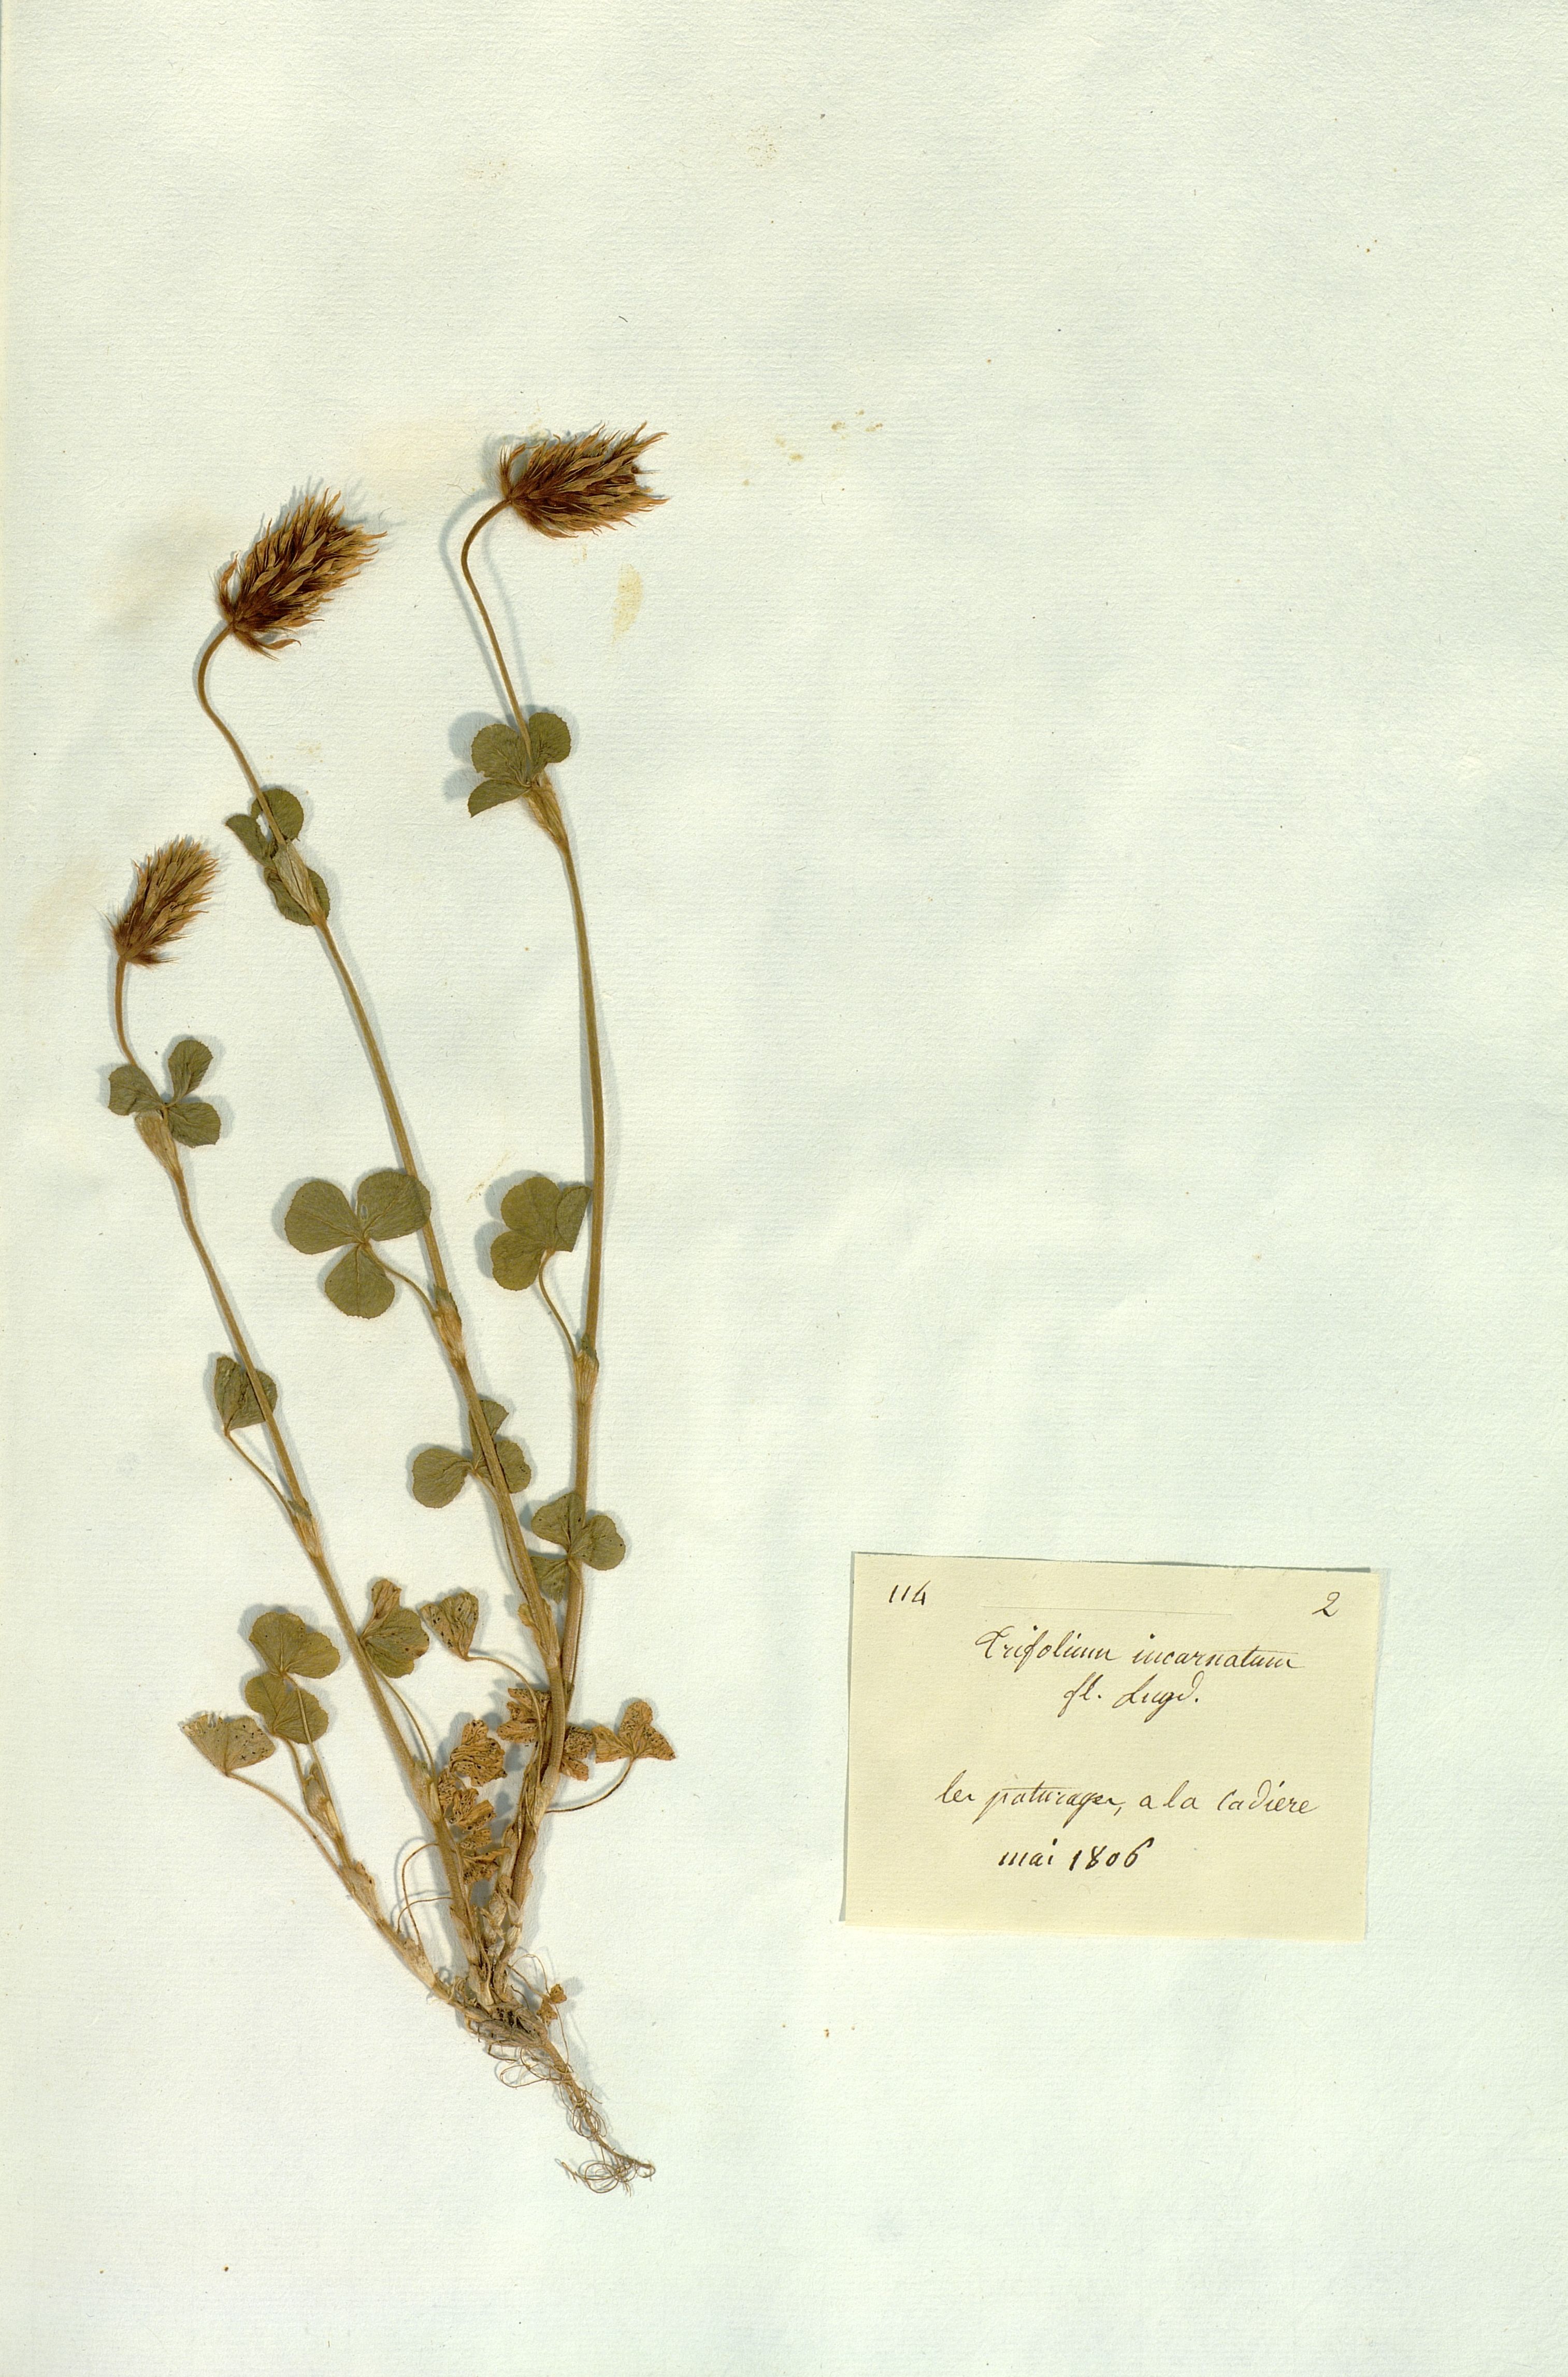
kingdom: Plantae
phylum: Tracheophyta
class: Magnoliopsida
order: Fabales
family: Fabaceae
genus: Trifolium
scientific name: Trifolium incarnatum
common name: Crimson clover
